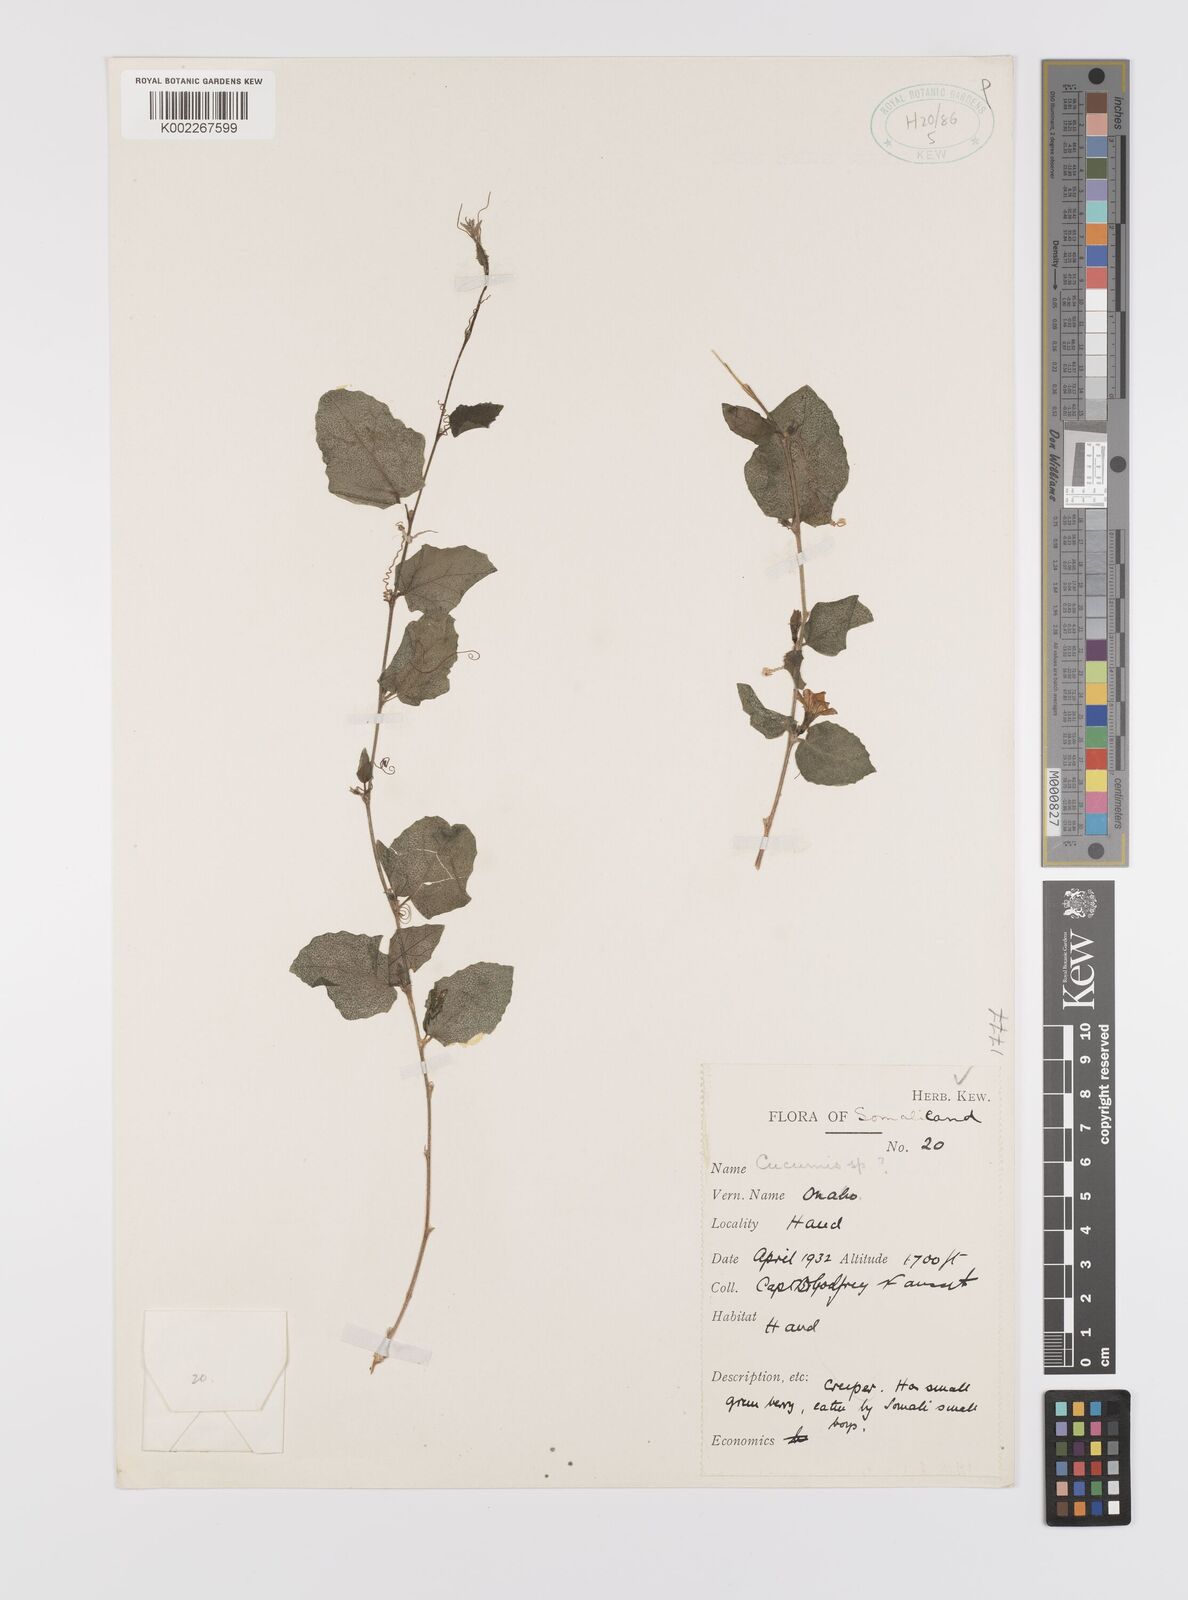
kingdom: Plantae
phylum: Tracheophyta
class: Magnoliopsida
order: Cucurbitales
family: Cucurbitaceae
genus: Cucumis
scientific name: Cucumis
